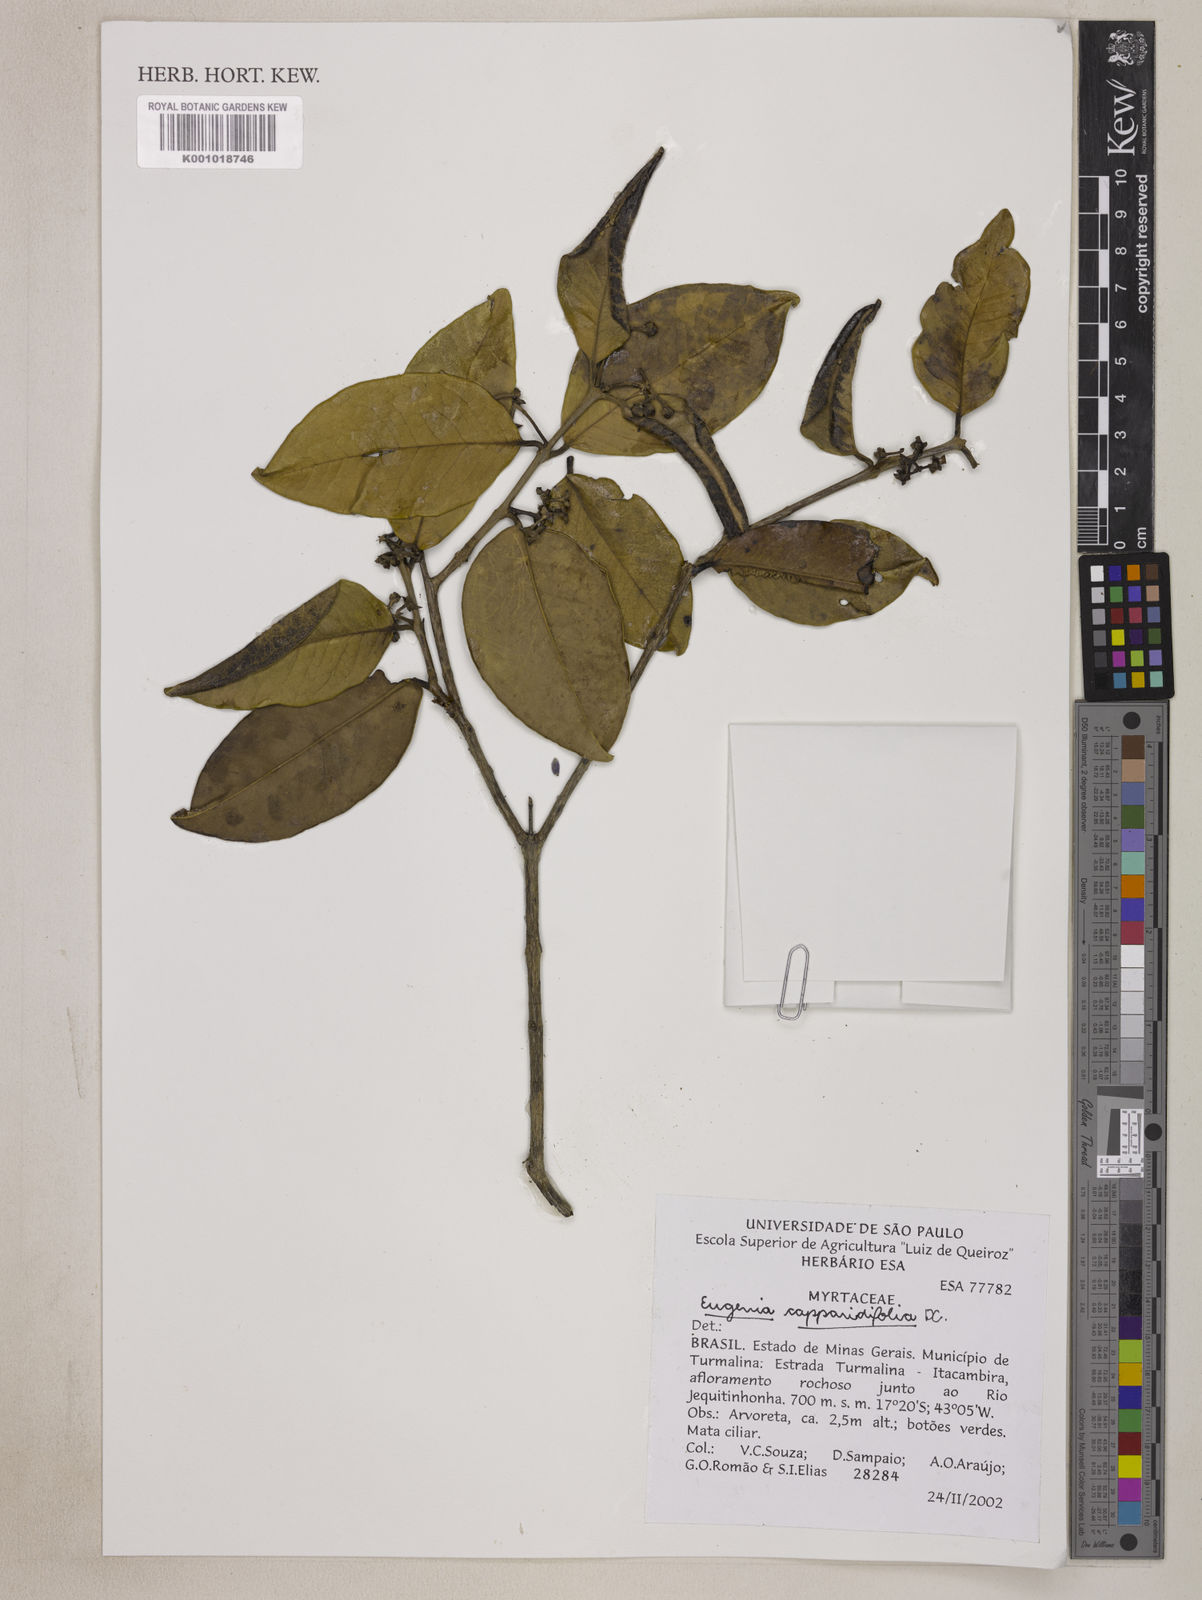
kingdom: Plantae
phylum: Tracheophyta
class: Magnoliopsida
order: Myrtales
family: Myrtaceae
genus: Eugenia
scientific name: Eugenia capparidifolia
